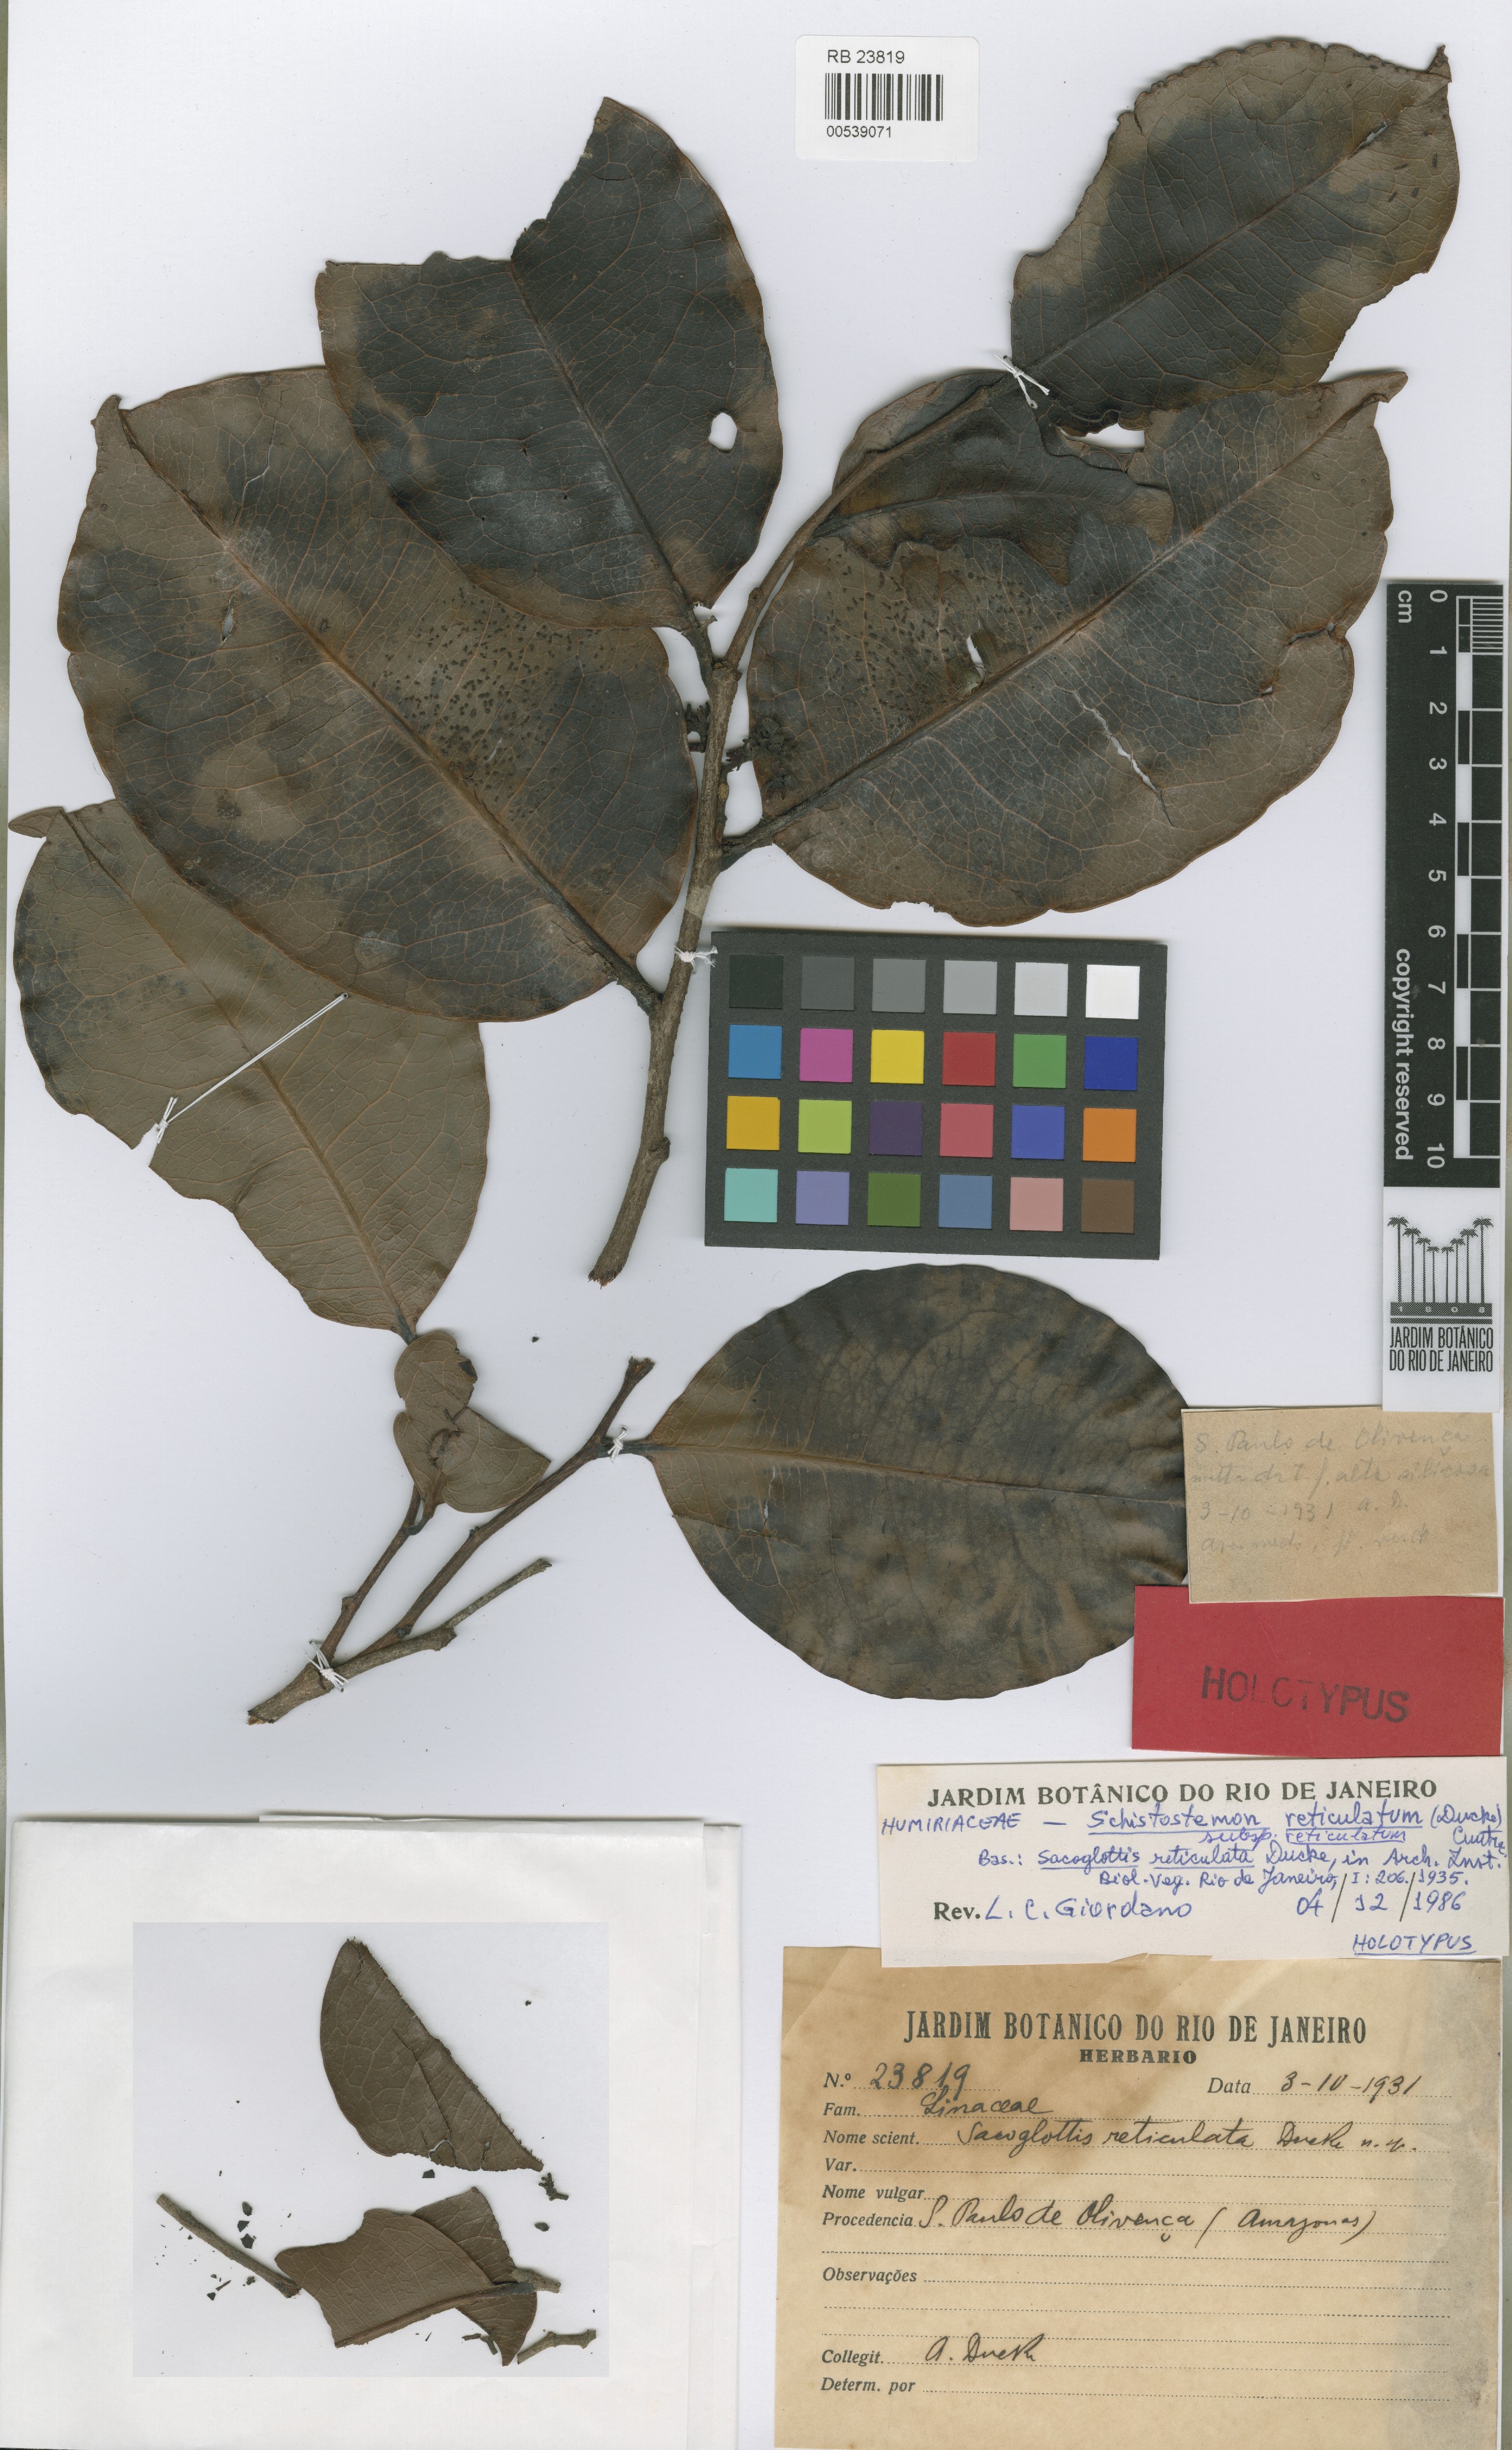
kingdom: Plantae
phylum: Tracheophyta
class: Magnoliopsida
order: Malpighiales
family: Humiriaceae
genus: Schistostemon
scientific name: Schistostemon reticulatum
